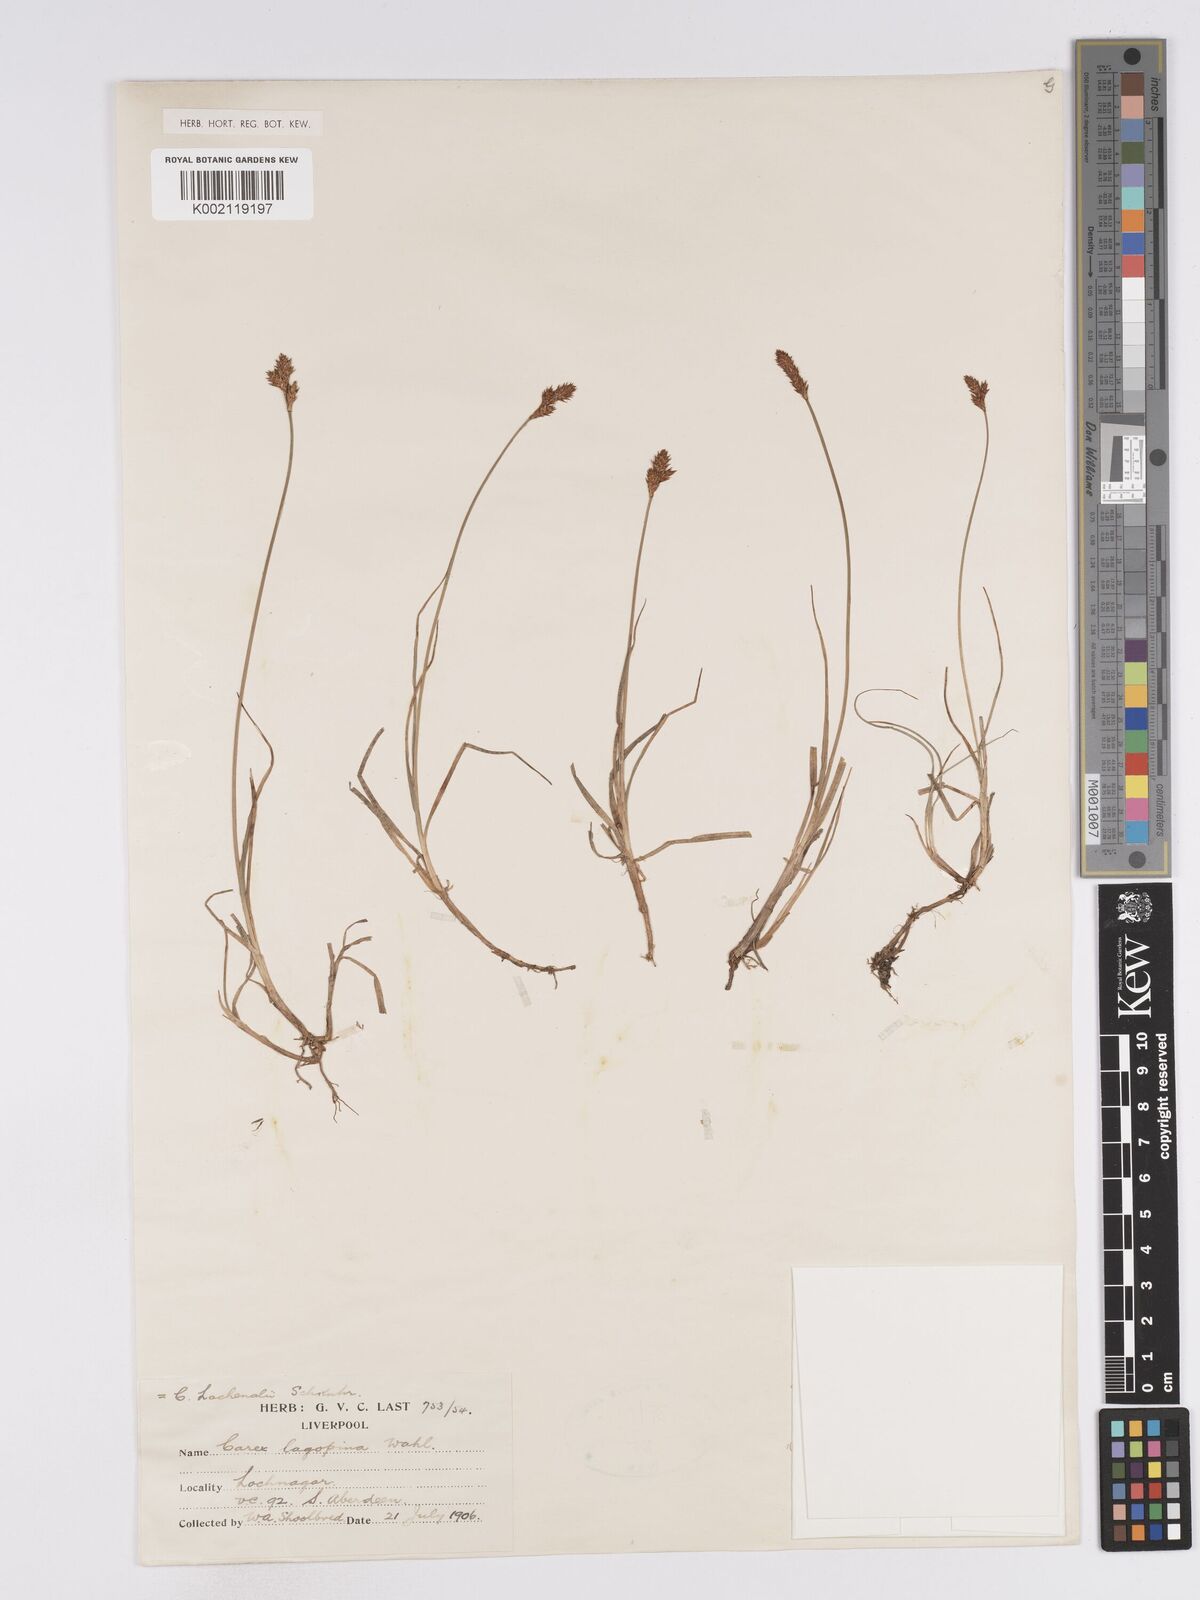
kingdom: Plantae
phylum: Tracheophyta
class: Liliopsida
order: Poales
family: Cyperaceae
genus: Carex
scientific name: Carex lachenalii
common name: Hare's-foot sedge
